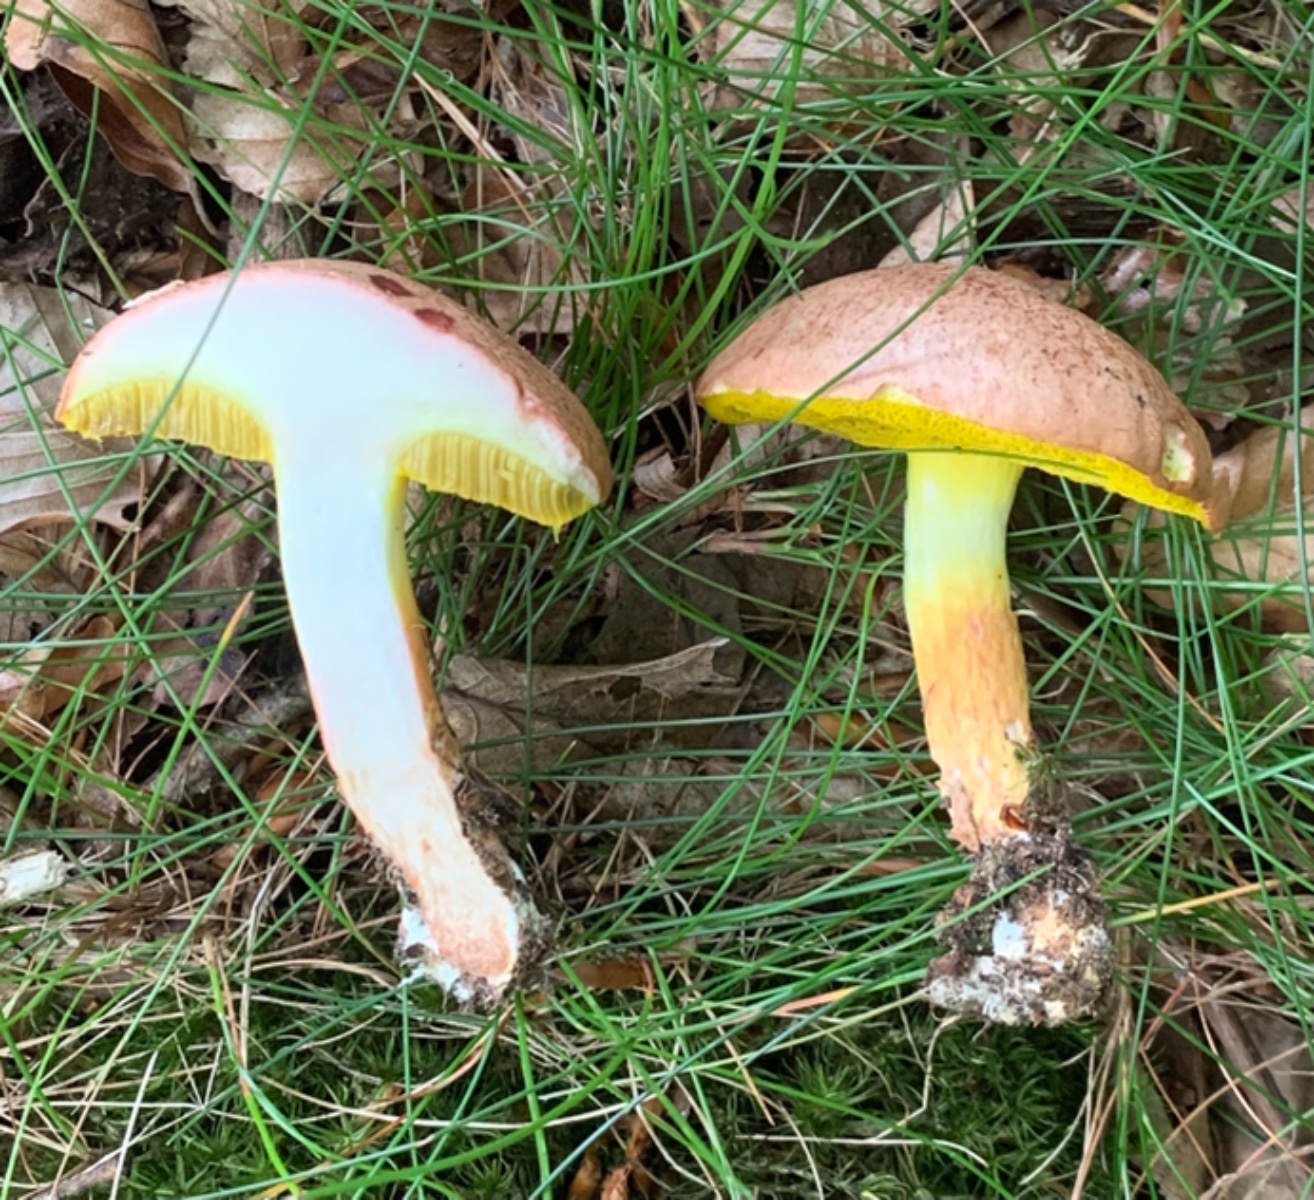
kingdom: Fungi
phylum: Basidiomycota
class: Agaricomycetes
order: Boletales
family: Boletaceae
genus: Aureoboletus
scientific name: Aureoboletus gentilis
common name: guldrørhat
